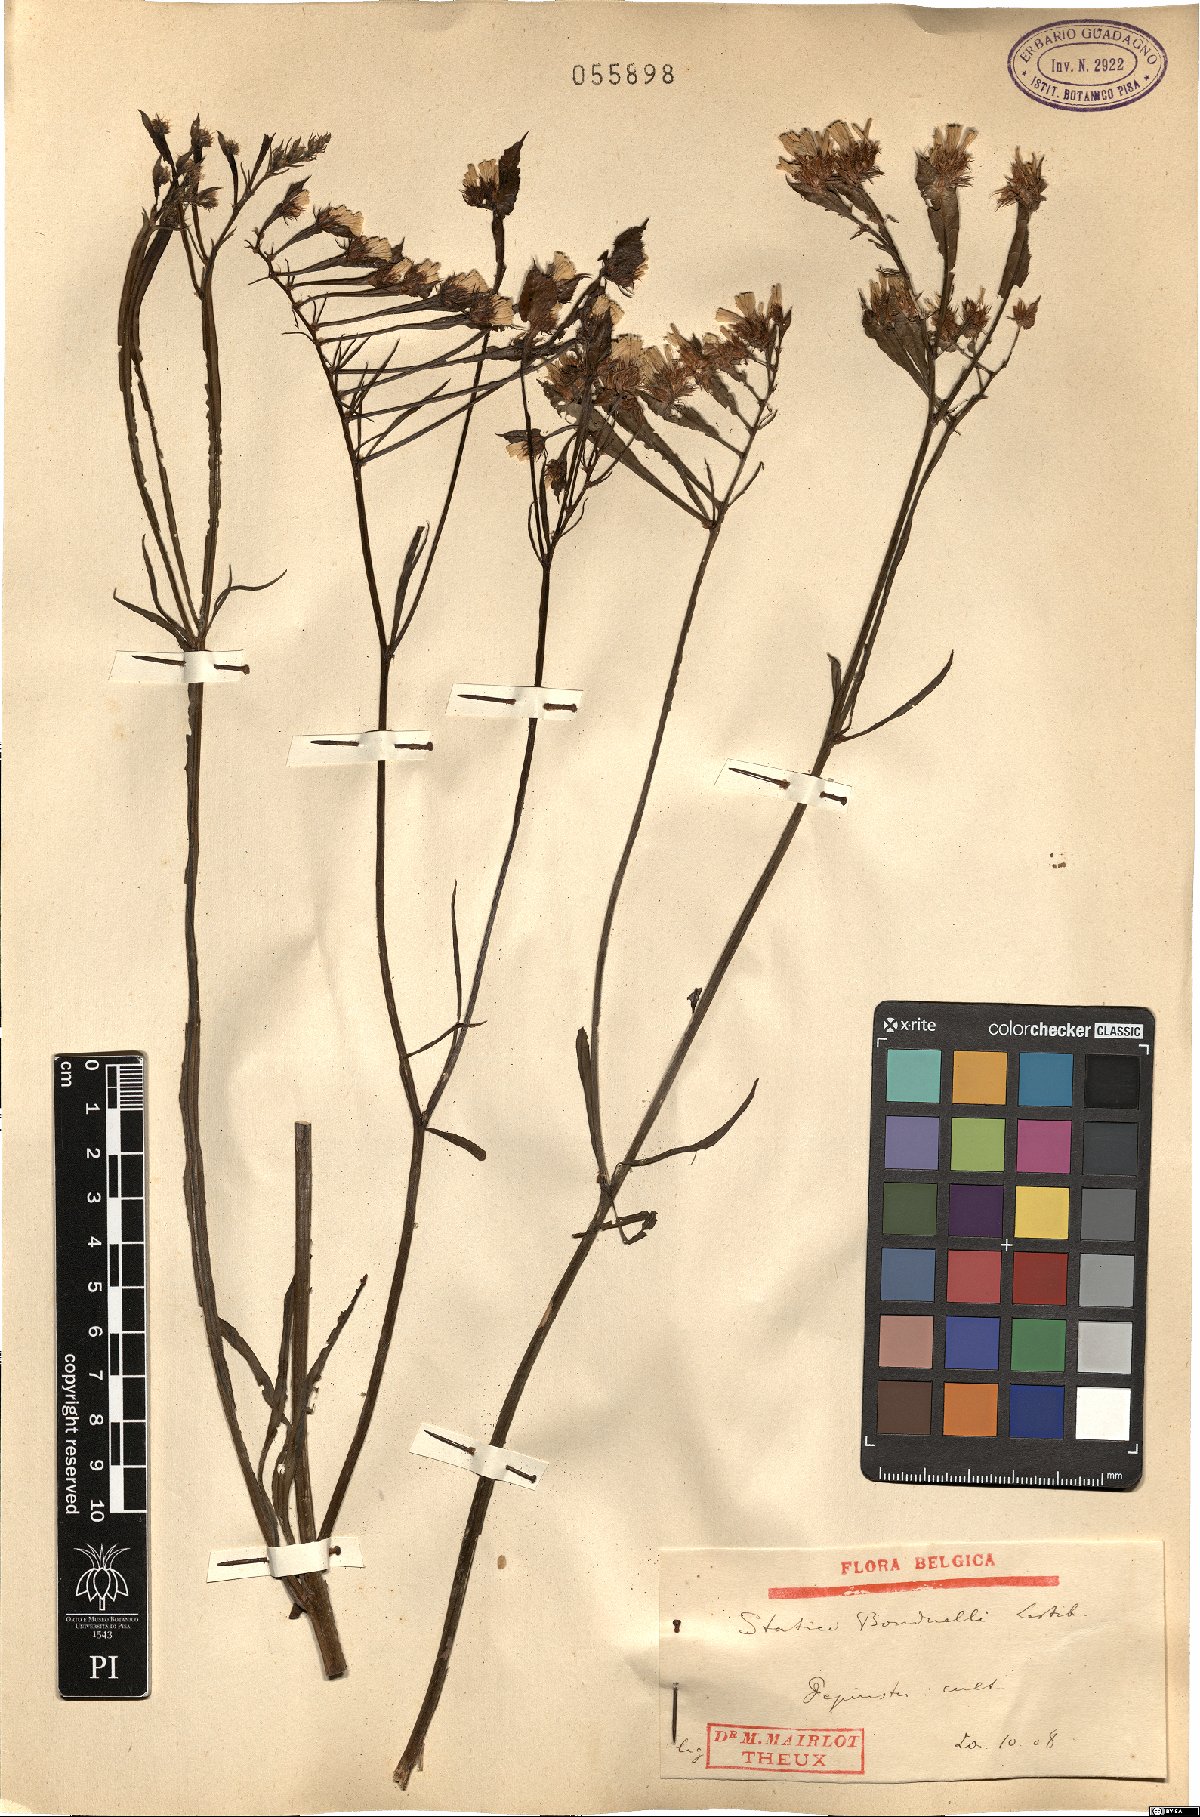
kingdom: Plantae
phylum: Tracheophyta
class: Magnoliopsida
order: Caryophyllales
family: Plumbaginaceae
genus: Limonium
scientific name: Limonium bonduellei
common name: Algerian statice
